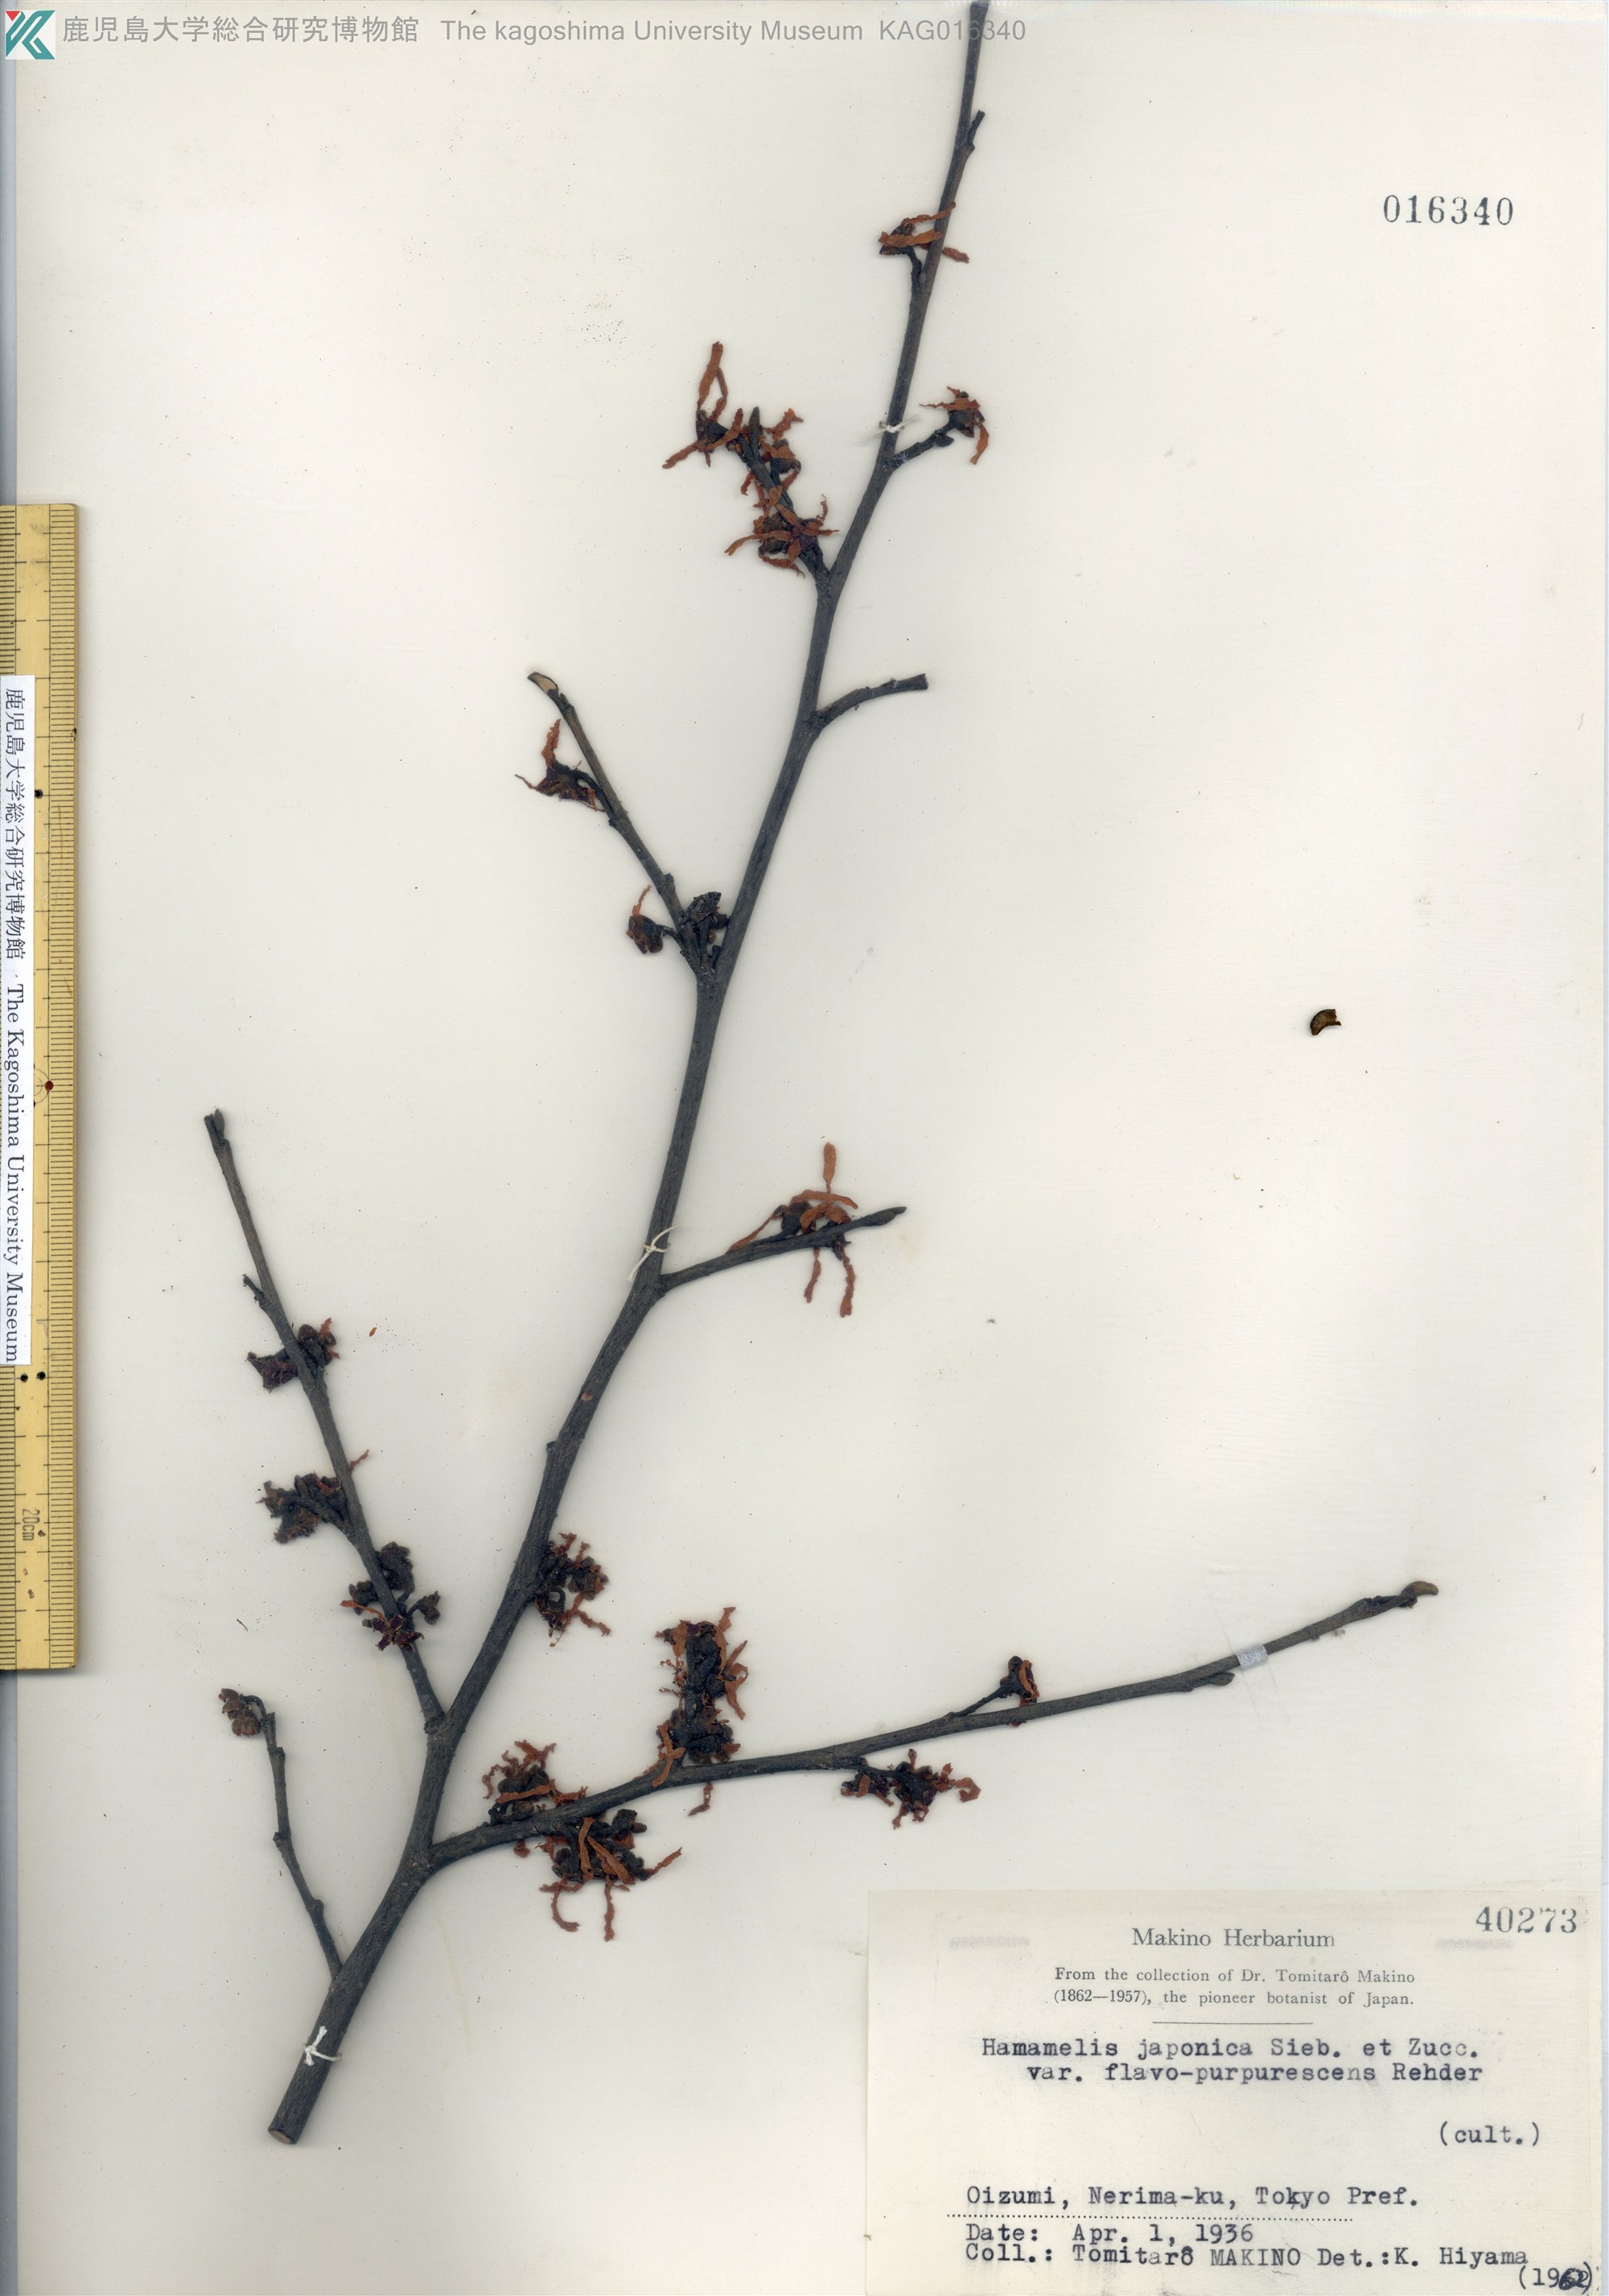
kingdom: Plantae
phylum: Tracheophyta
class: Magnoliopsida
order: Saxifragales
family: Hamamelidaceae
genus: Hamamelis
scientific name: Hamamelis japonica
